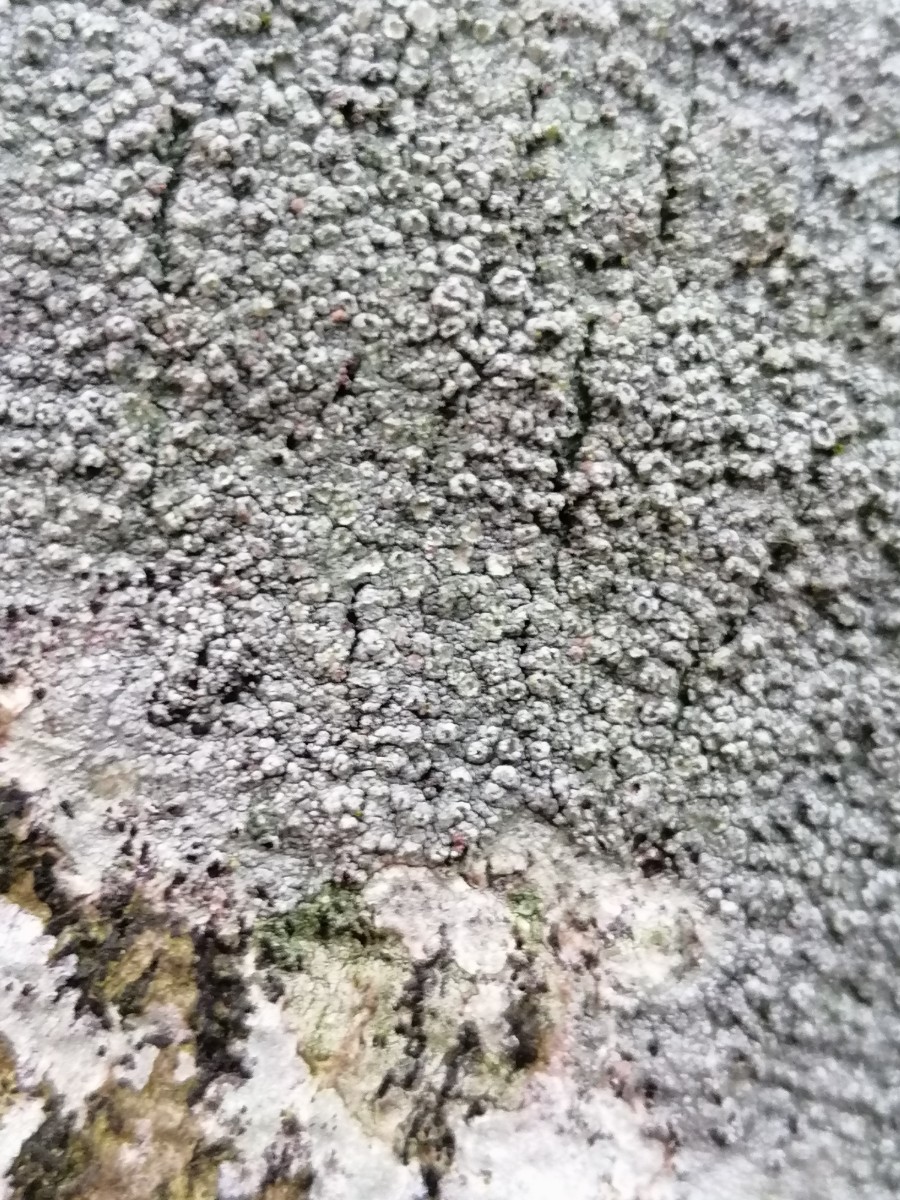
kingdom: Fungi
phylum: Ascomycota
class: Lecanoromycetes
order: Pertusariales
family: Pertusariaceae
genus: Pertusaria
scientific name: Pertusaria hymenea
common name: åben prikvortelav
